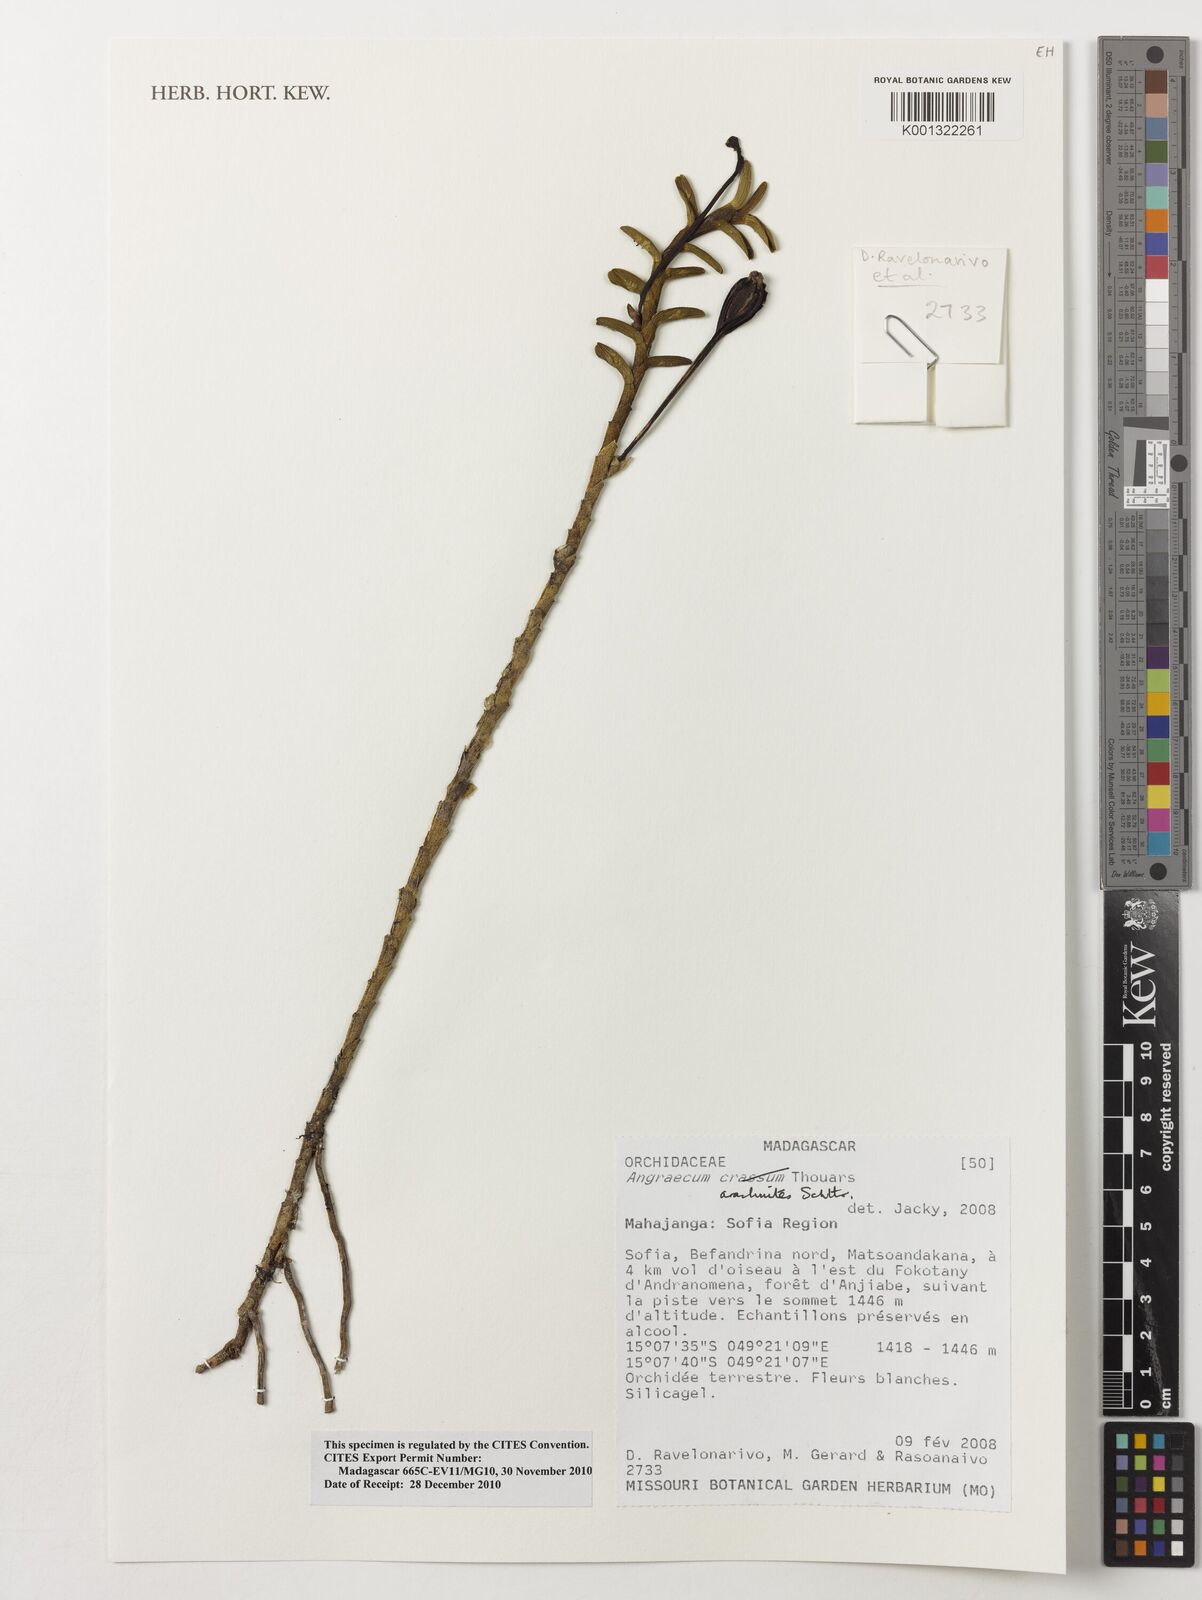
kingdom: Plantae
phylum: Tracheophyta
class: Liliopsida
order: Asparagales
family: Orchidaceae
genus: Angraecum
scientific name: Angraecum
